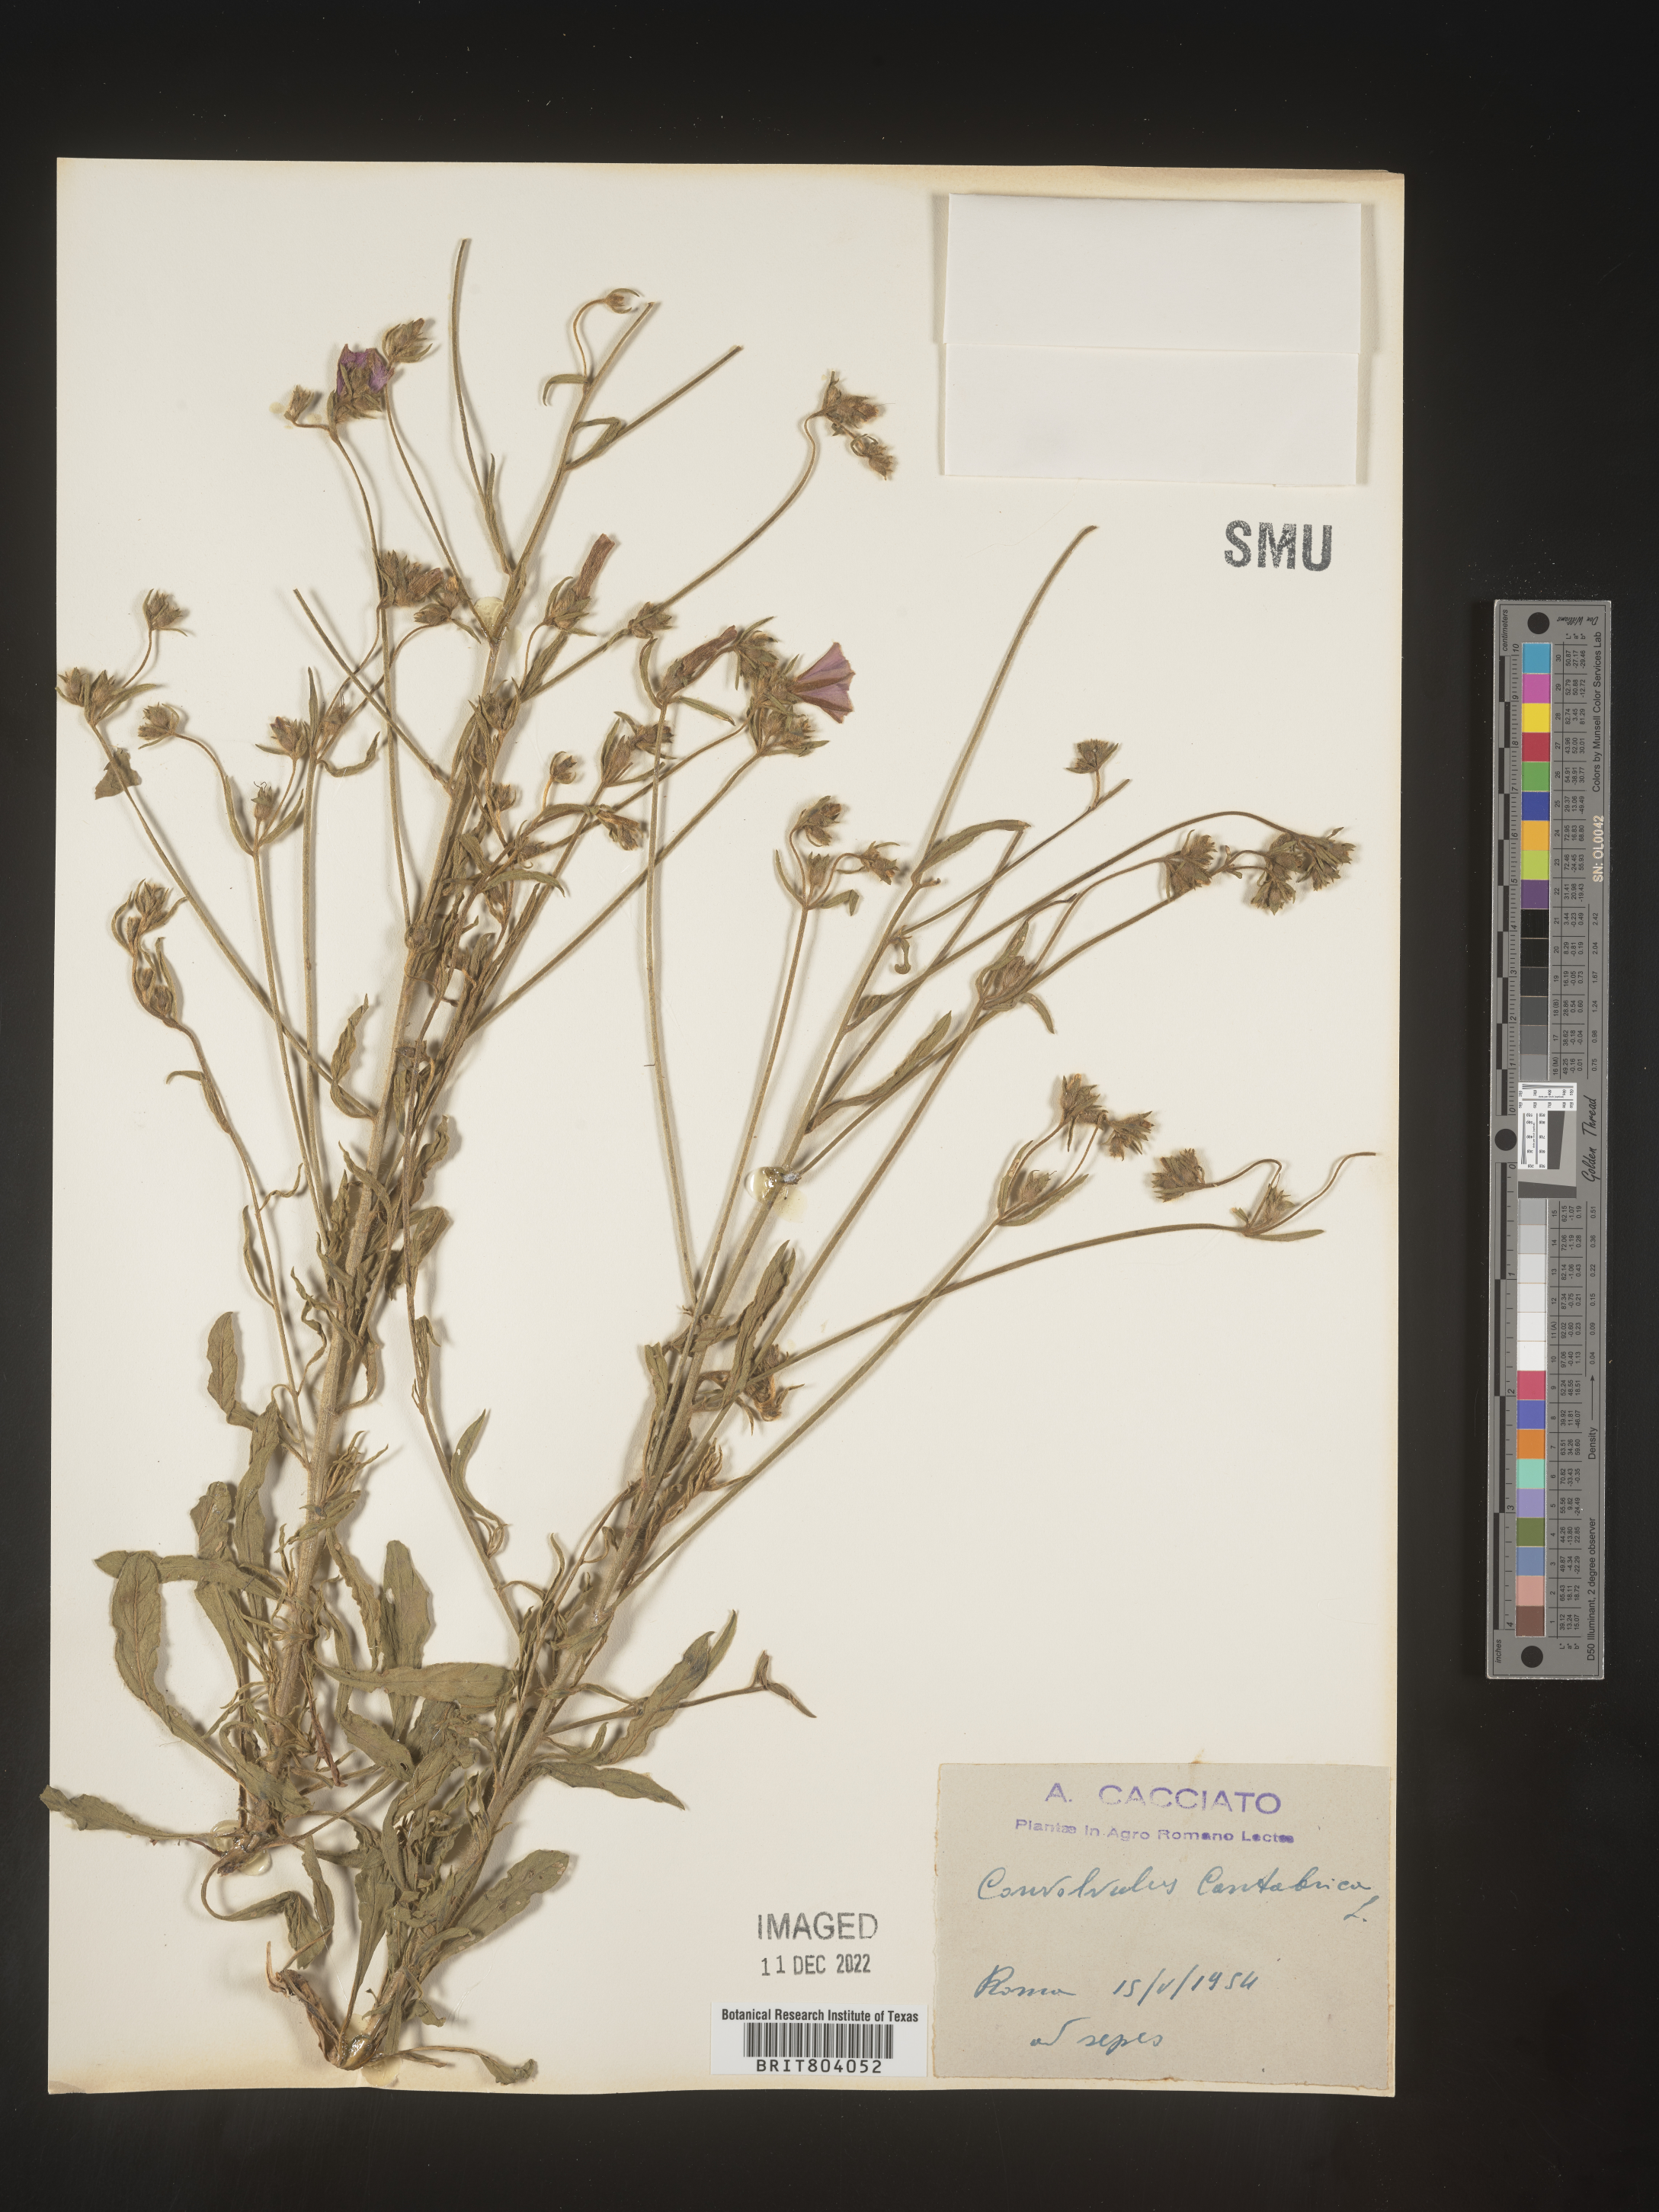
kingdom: Plantae
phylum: Tracheophyta
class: Magnoliopsida
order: Solanales
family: Convolvulaceae
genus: Convolvulus
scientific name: Convolvulus
